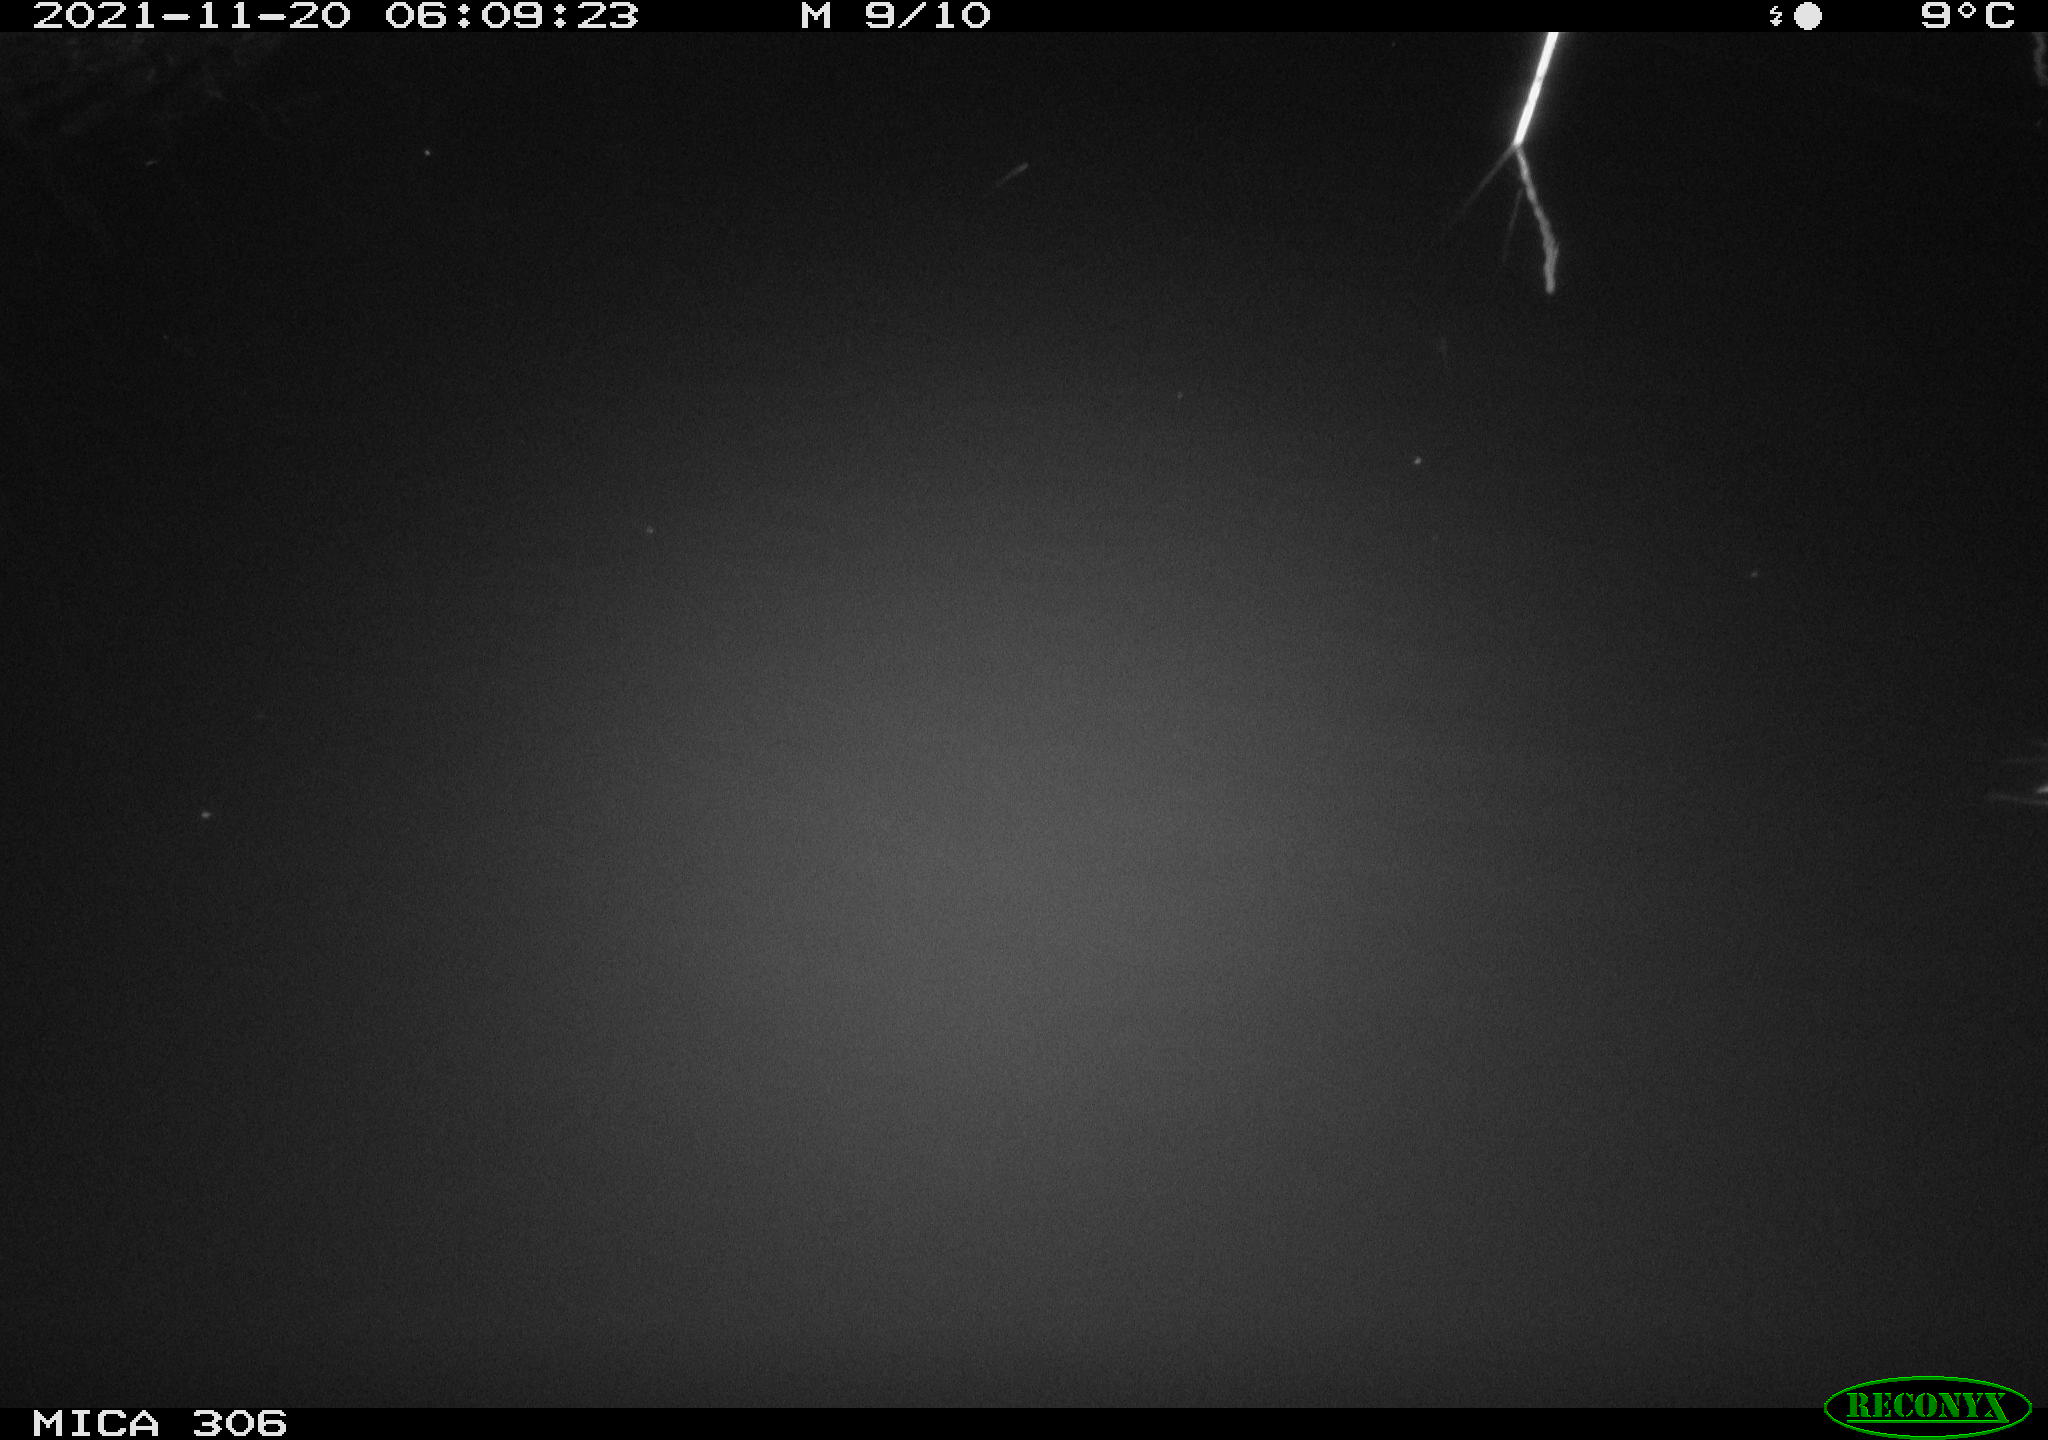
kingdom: Animalia
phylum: Chordata
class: Mammalia
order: Rodentia
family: Muridae
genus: Rattus
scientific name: Rattus norvegicus
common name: Brown rat
